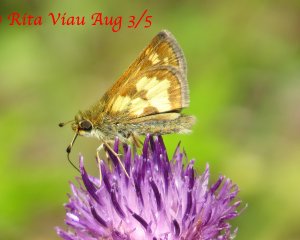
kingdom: Animalia
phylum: Arthropoda
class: Insecta
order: Lepidoptera
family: Hesperiidae
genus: Polites
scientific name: Polites coras
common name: Peck's Skipper
